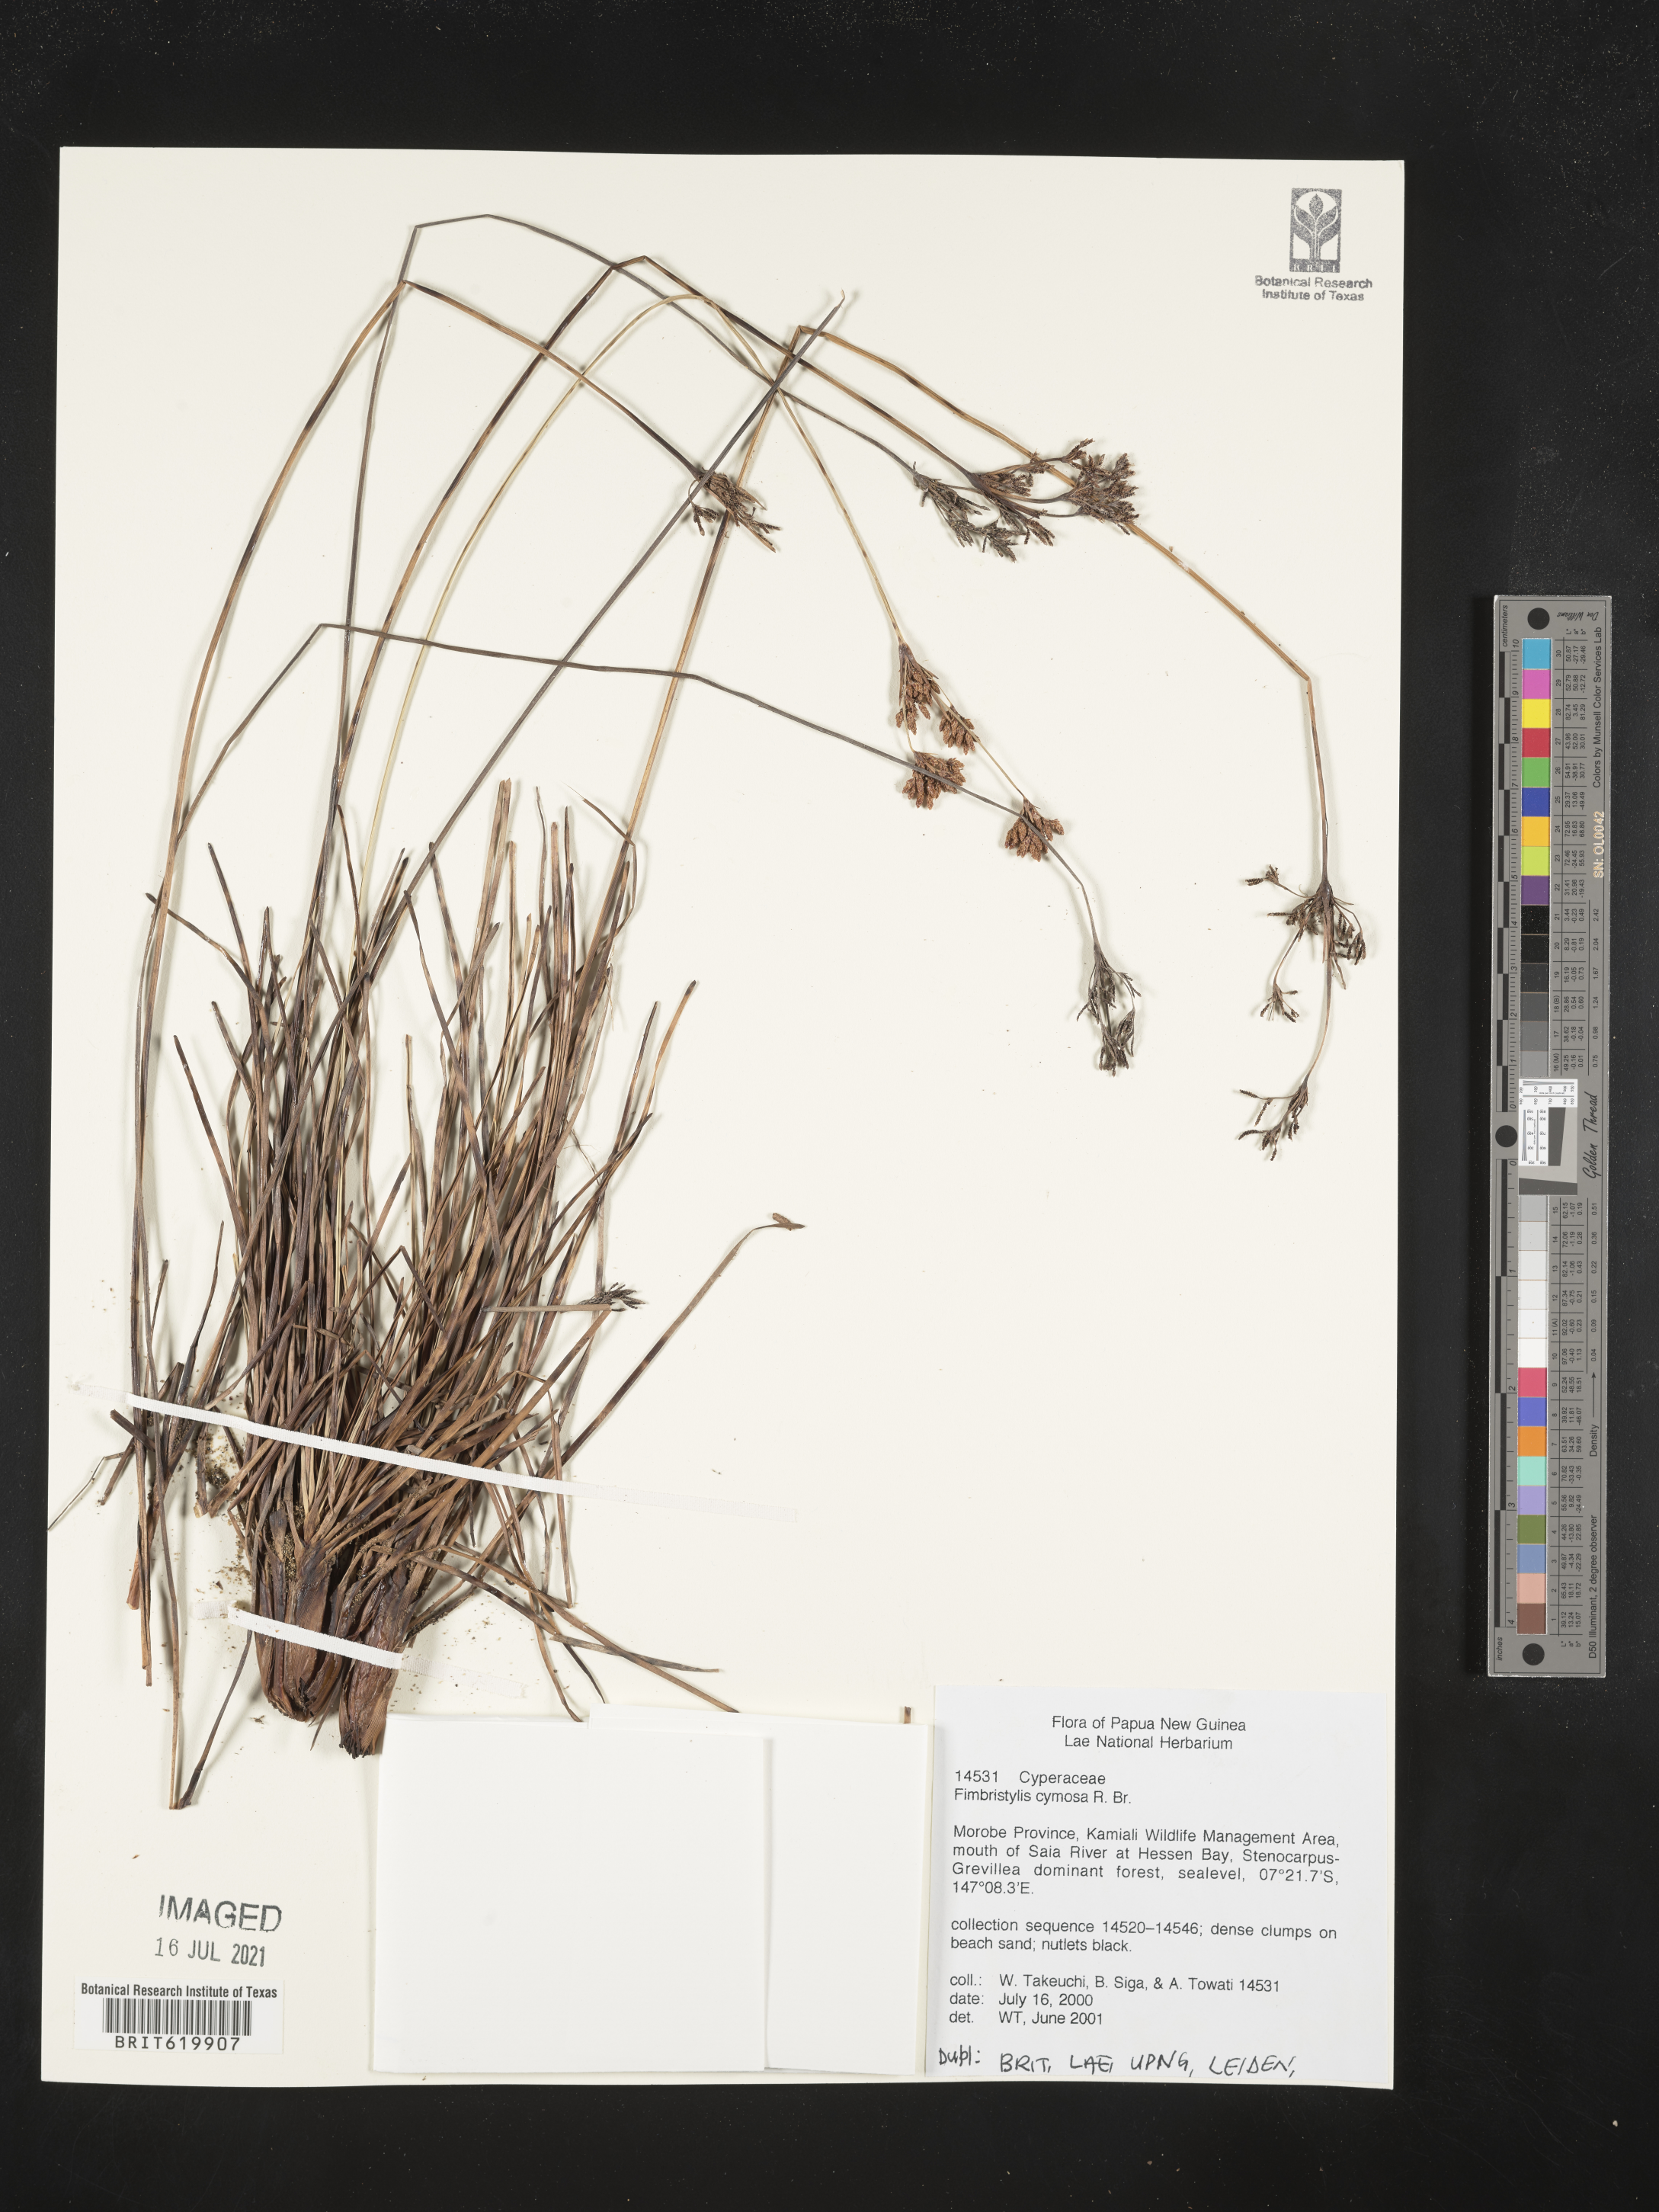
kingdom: Plantae
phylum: Tracheophyta
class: Liliopsida
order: Poales
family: Cyperaceae
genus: Fimbristylis
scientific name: Fimbristylis cymosa
